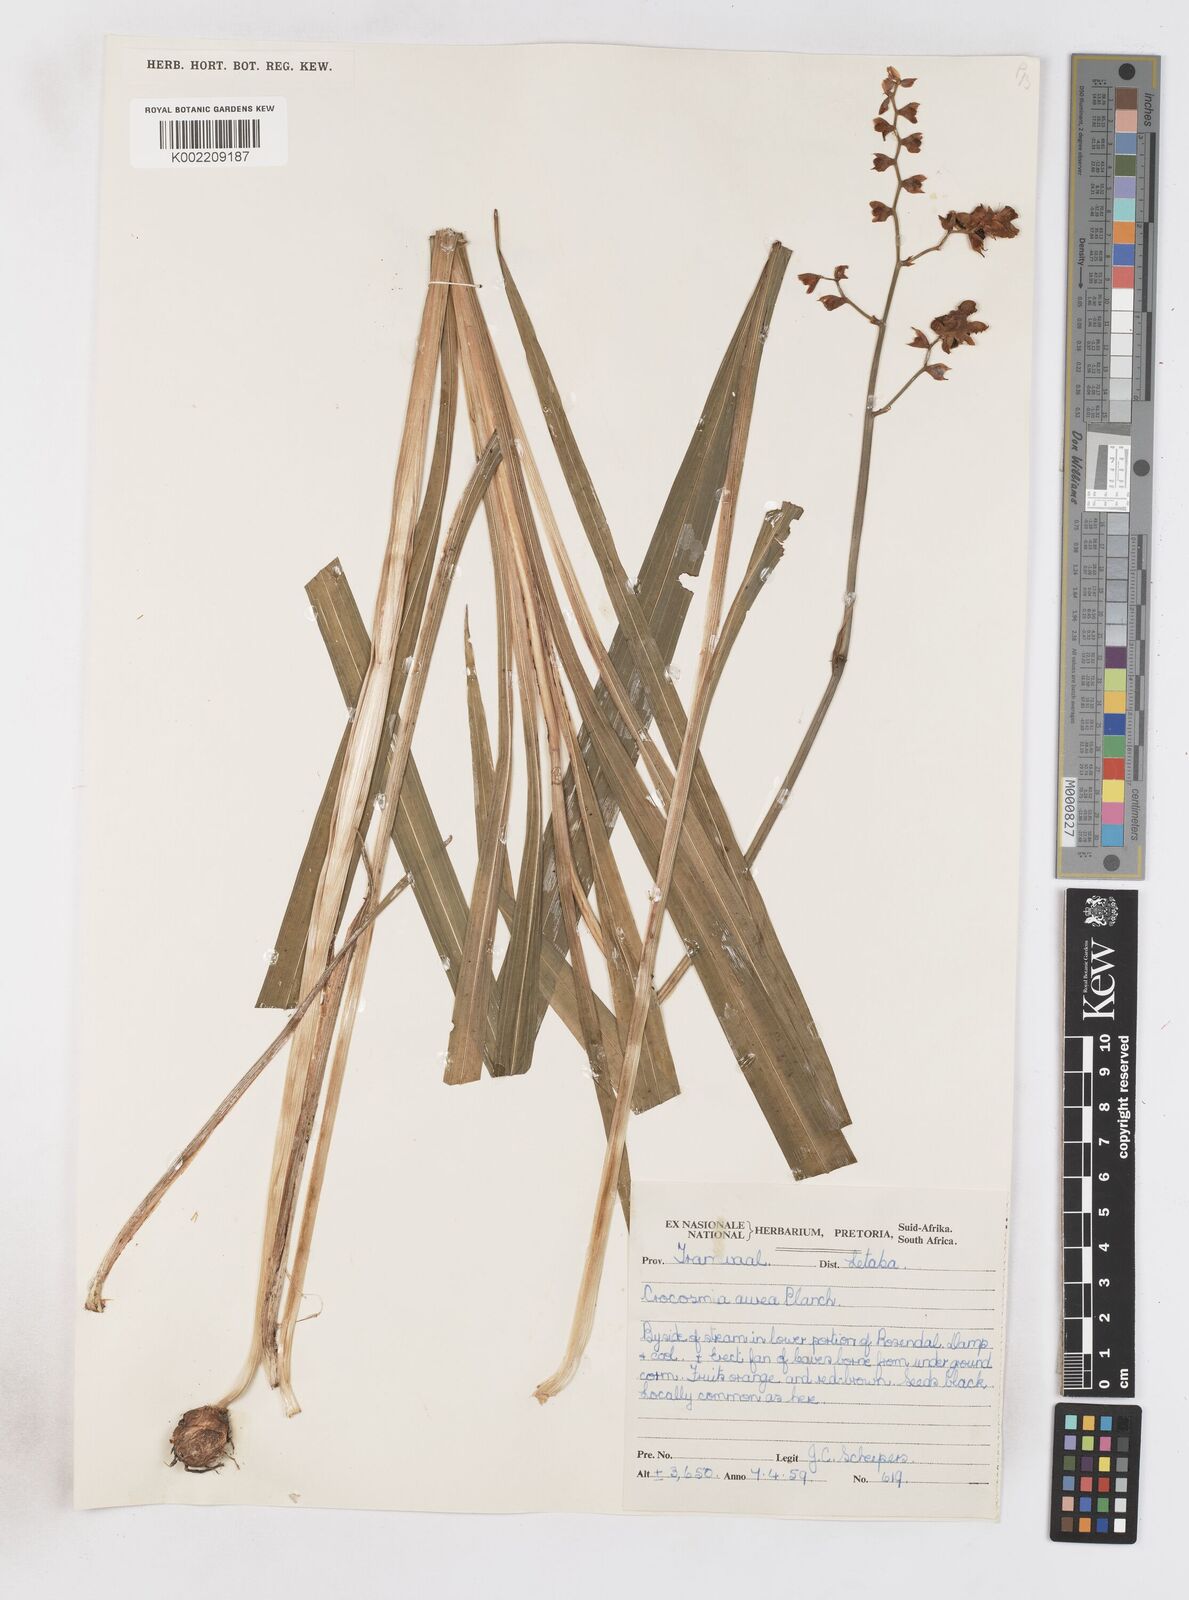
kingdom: Plantae
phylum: Tracheophyta
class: Liliopsida
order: Asparagales
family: Iridaceae
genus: Crocosmia
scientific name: Crocosmia aurea
